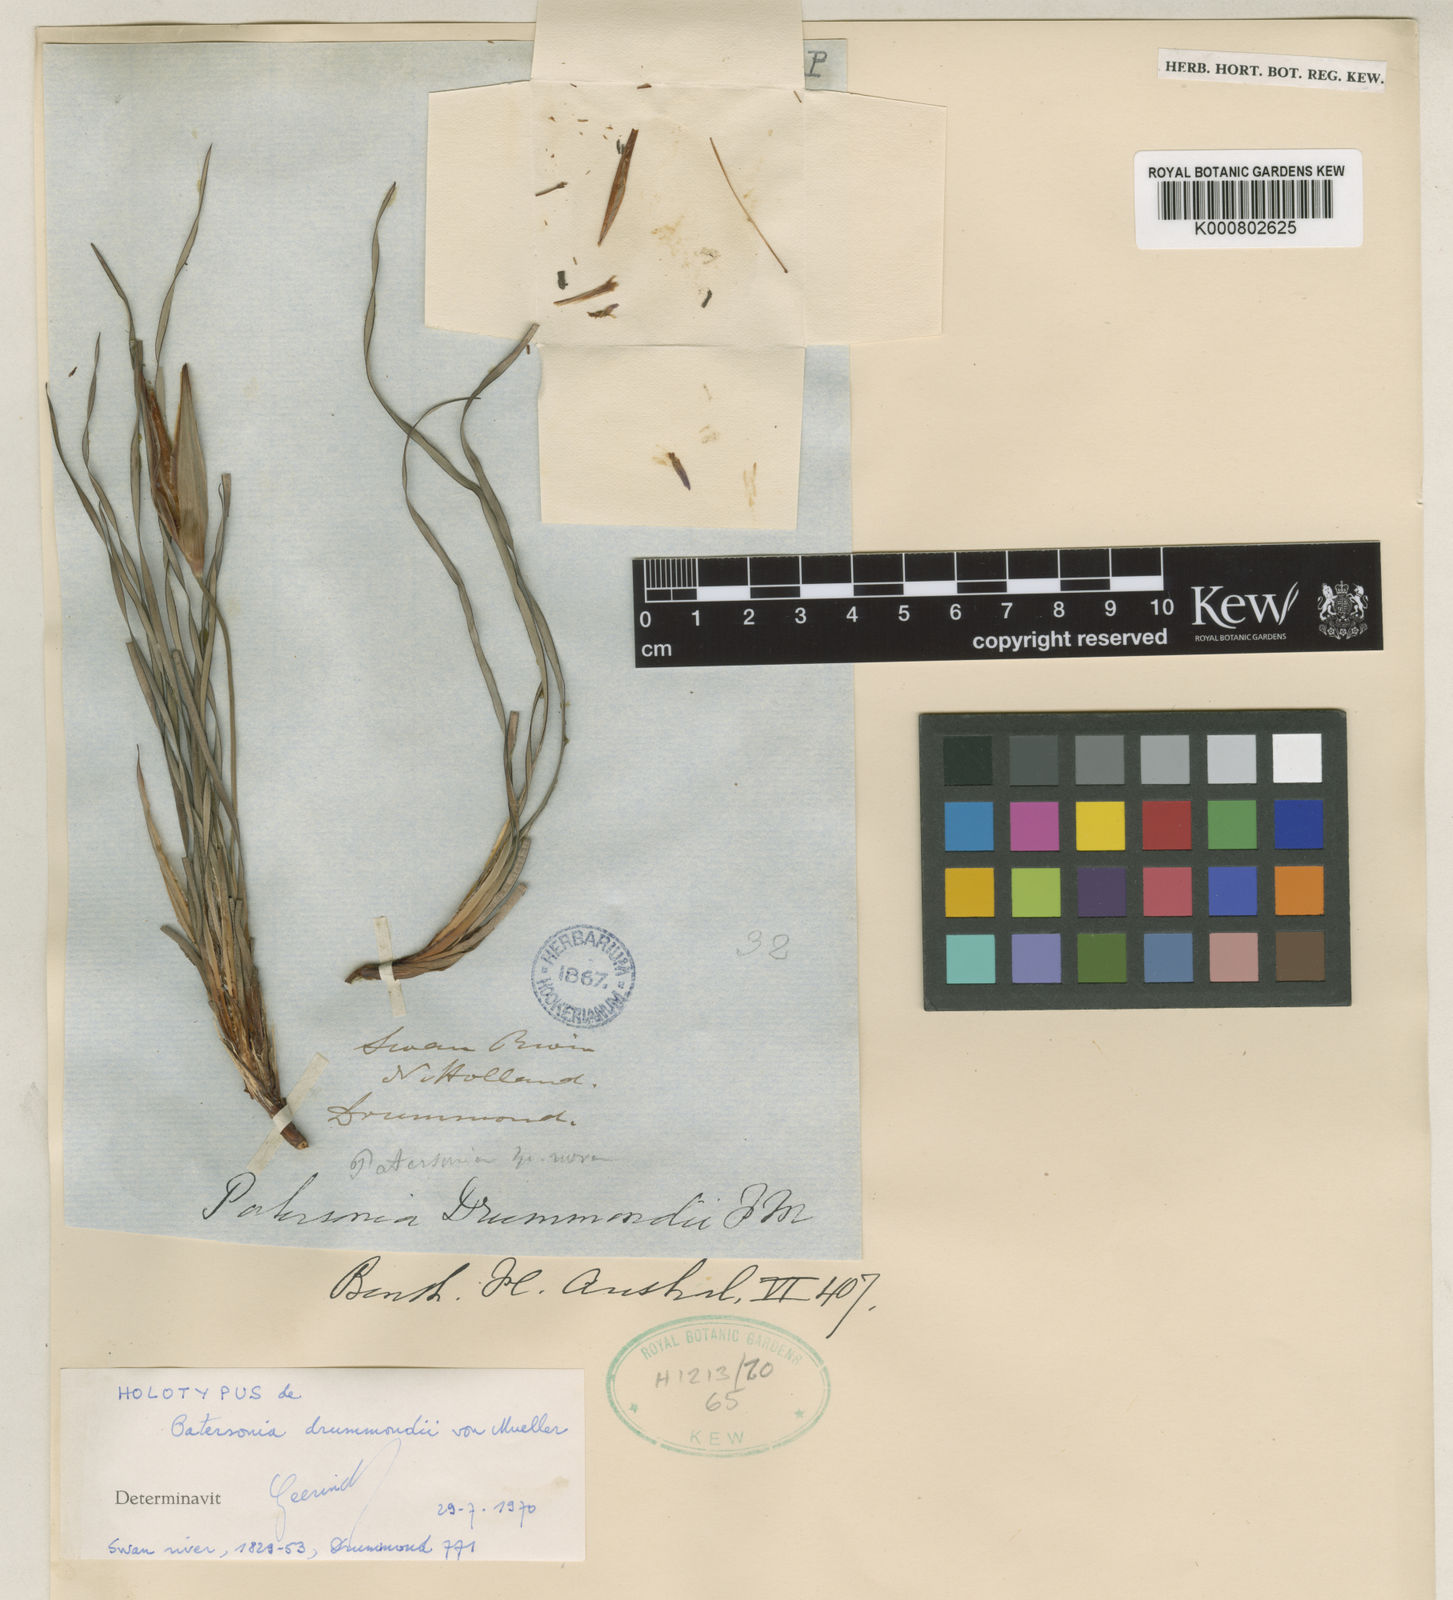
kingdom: Plantae
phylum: Tracheophyta
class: Liliopsida
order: Asparagales
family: Iridaceae
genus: Patersonia
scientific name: Patersonia drummondii
